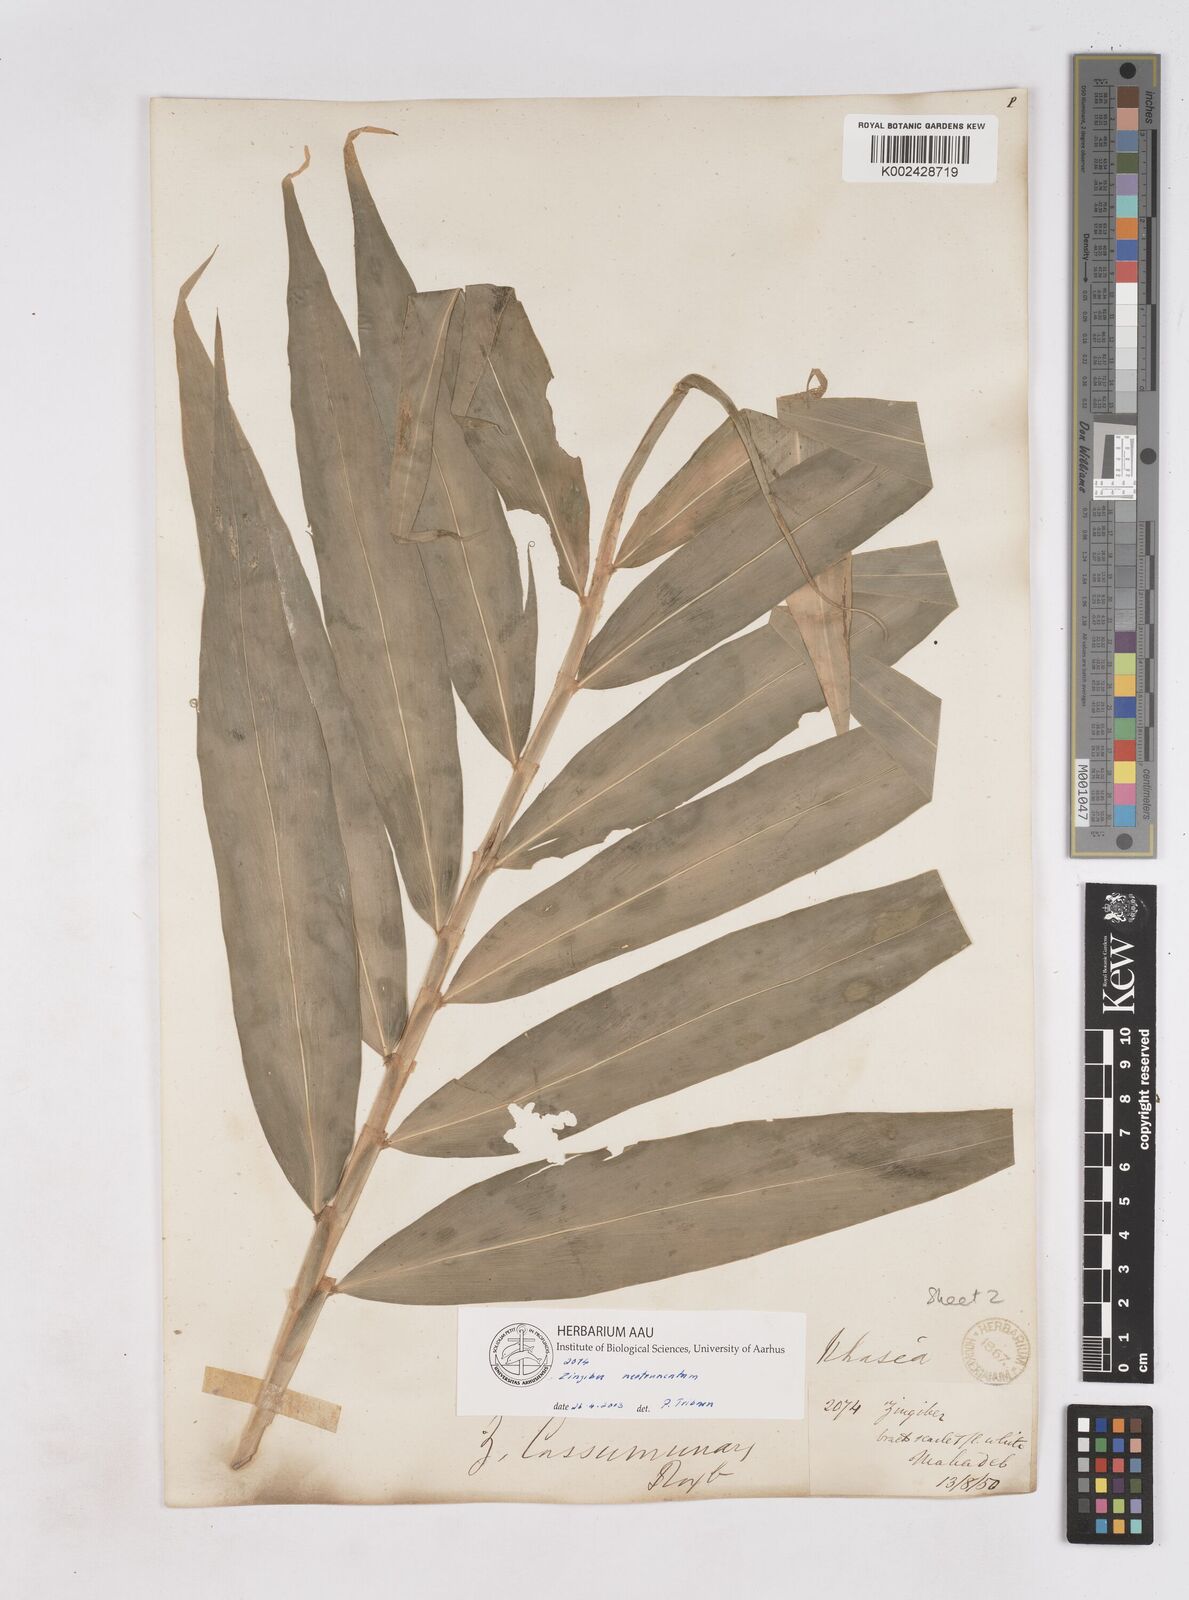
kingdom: Plantae
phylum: Tracheophyta
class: Liliopsida
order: Zingiberales
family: Zingiberaceae
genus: Zingiber
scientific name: Zingiber neotruncatum
